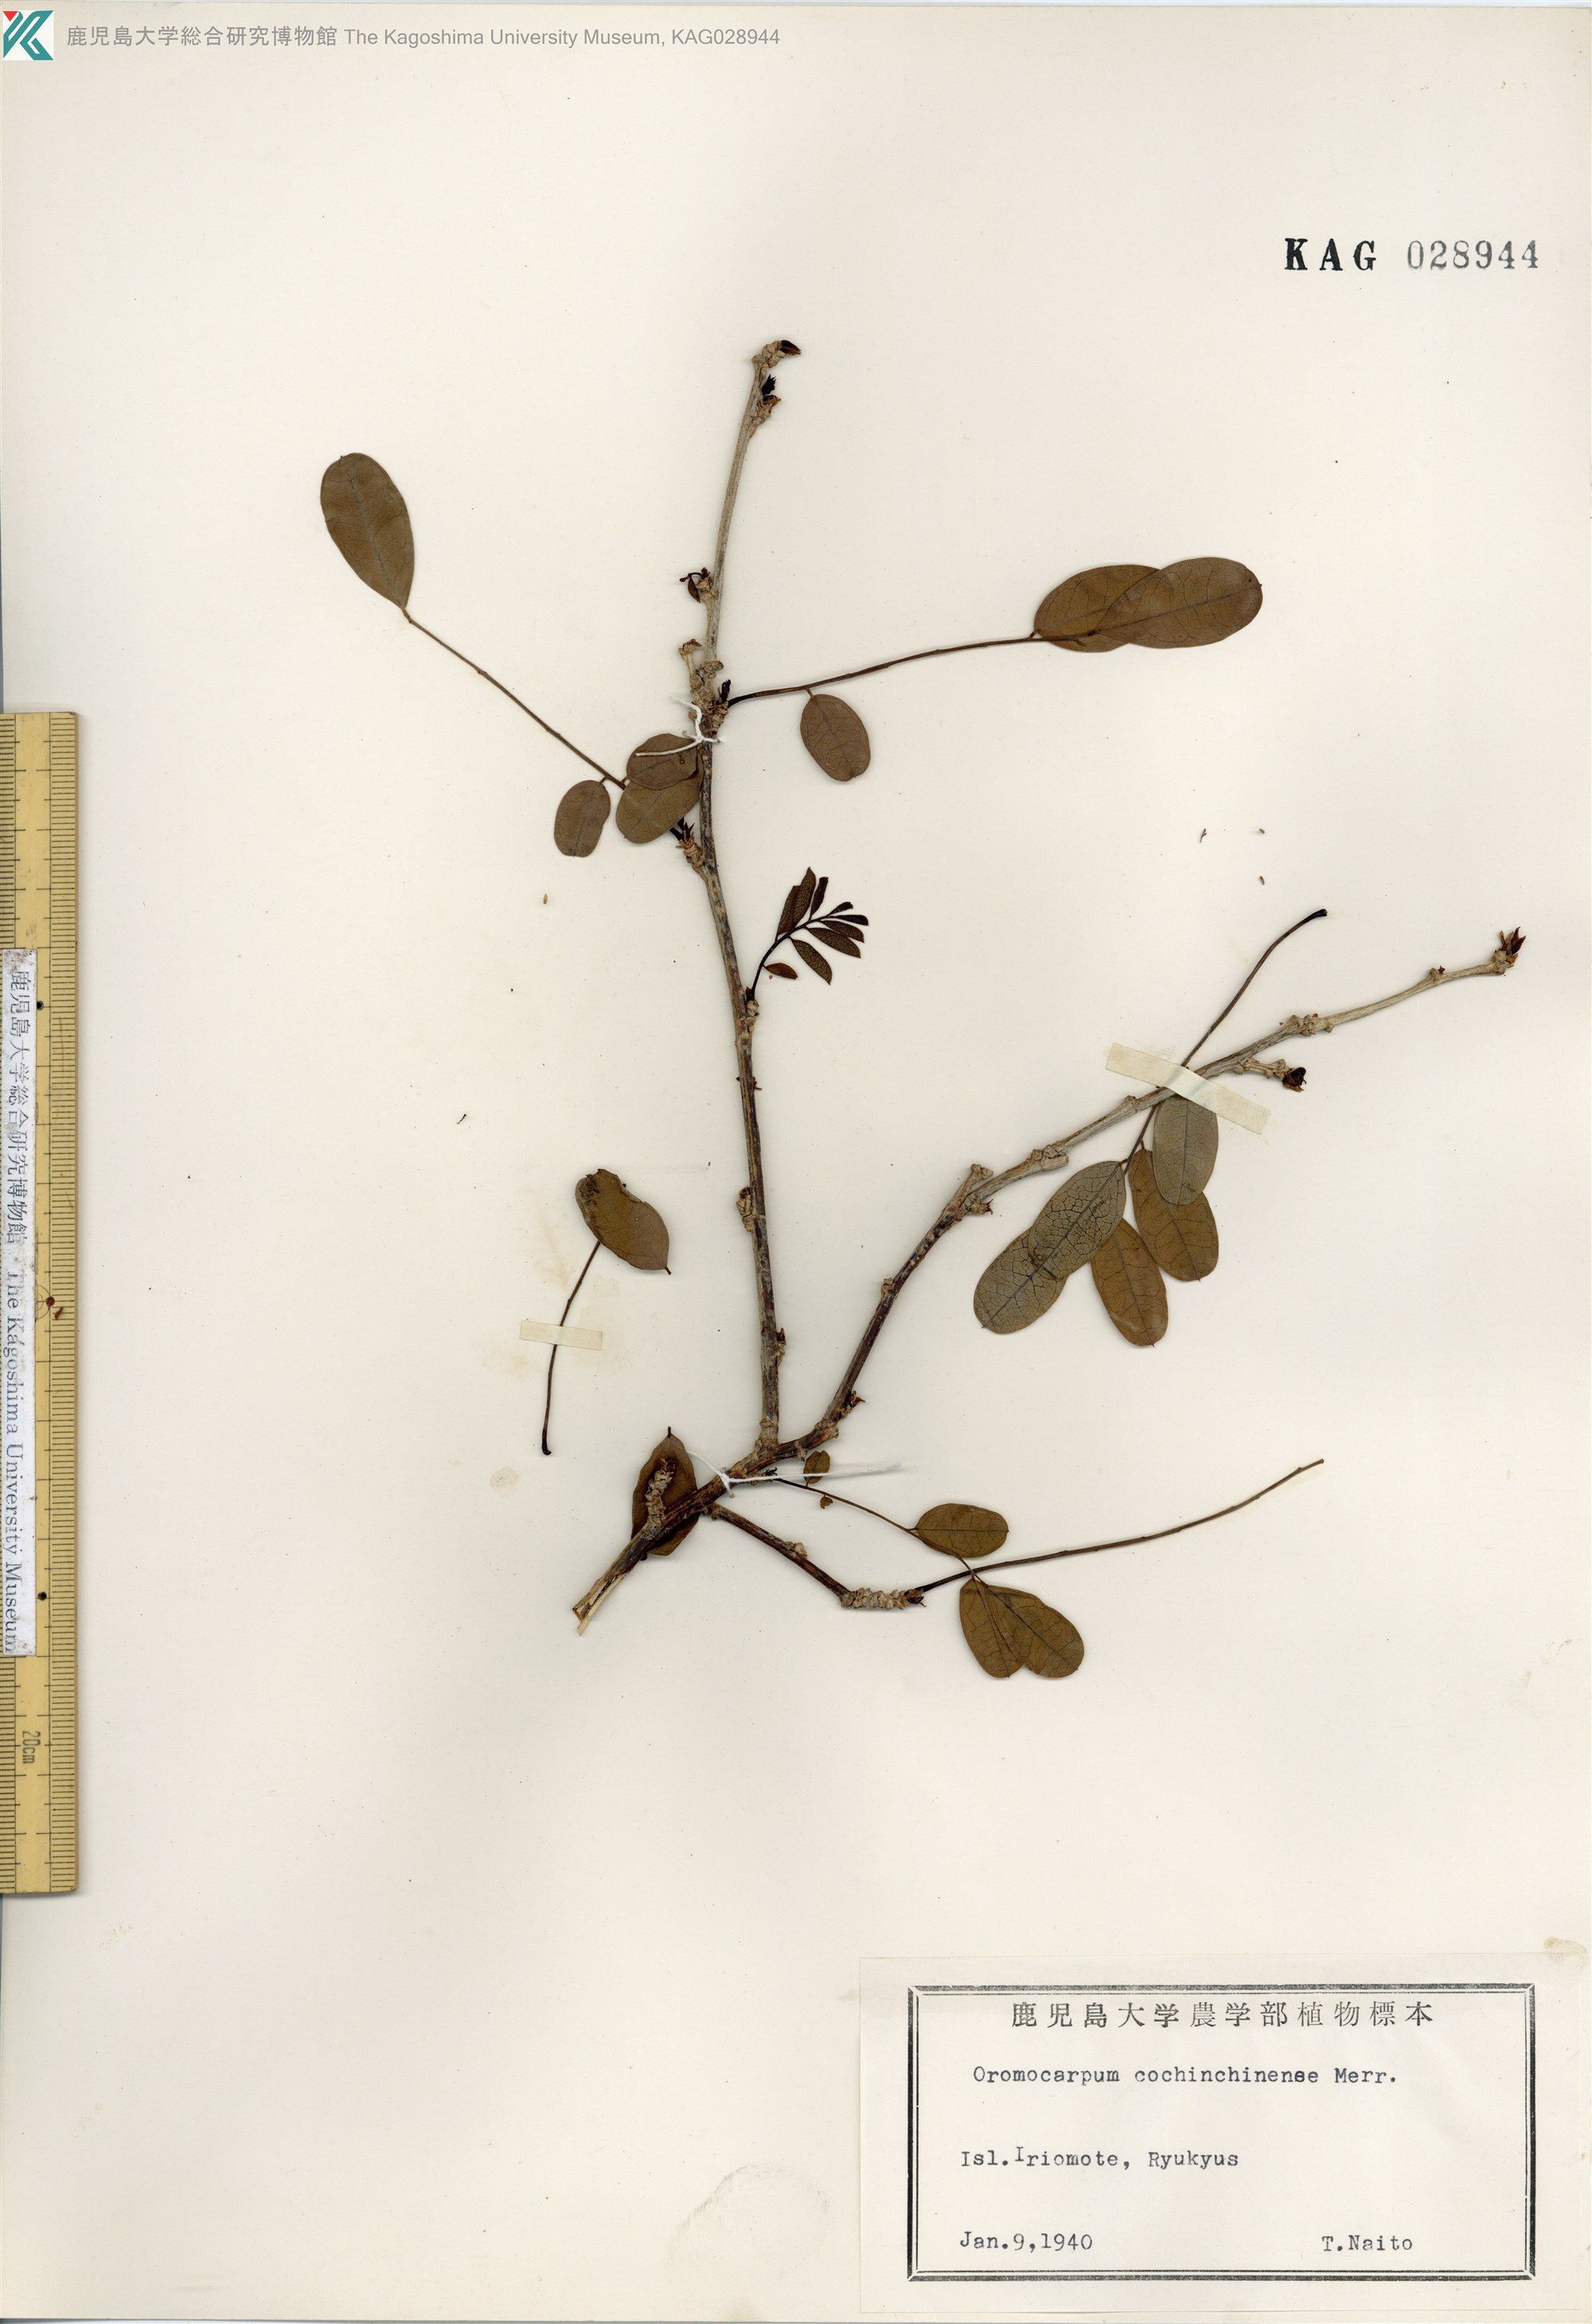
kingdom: Plantae
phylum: Tracheophyta
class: Magnoliopsida
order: Fabales
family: Fabaceae
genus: Ormocarpum
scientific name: Ormocarpum cochinchinense
